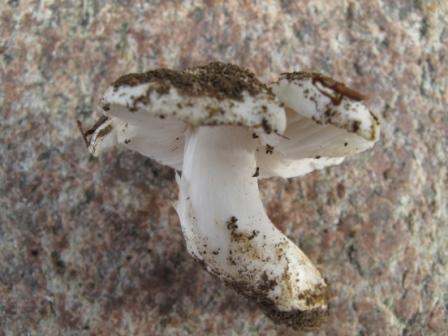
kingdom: Fungi
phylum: Basidiomycota
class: Agaricomycetes
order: Agaricales
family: Tricholomataceae
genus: Tricholoma
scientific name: Tricholoma columbetta
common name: silke-ridderhat
